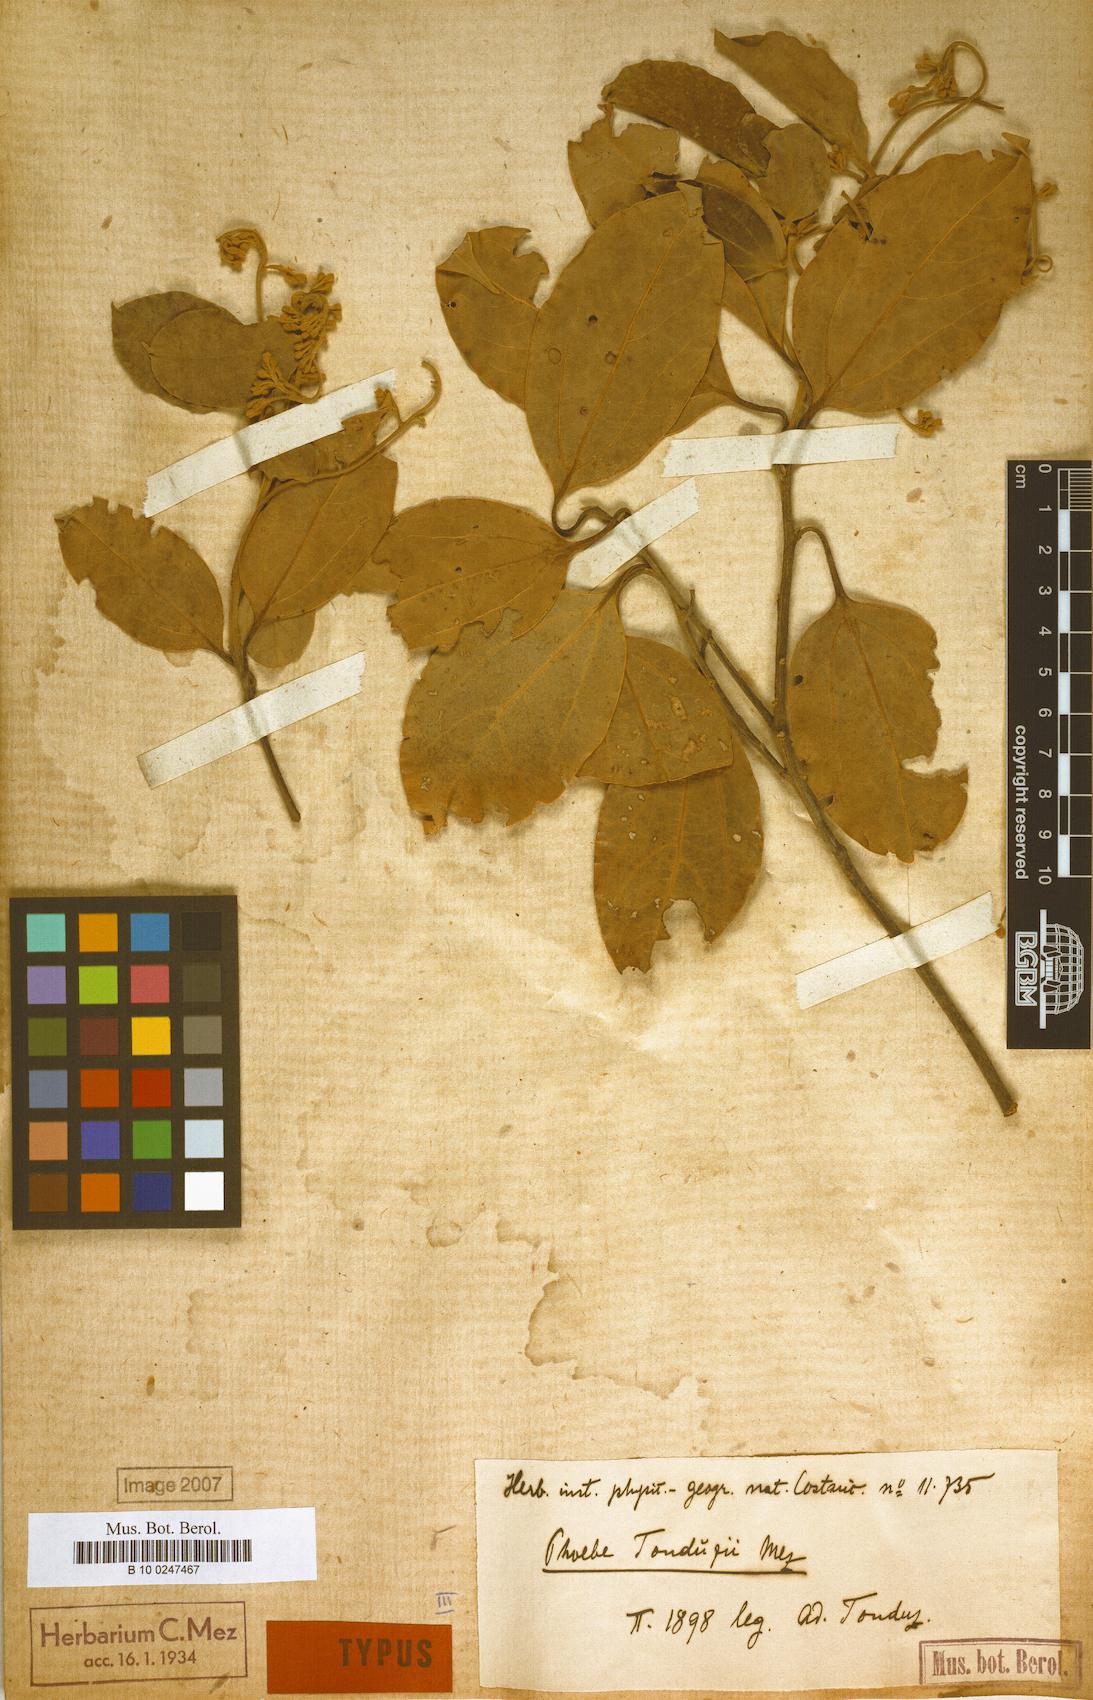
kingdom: Plantae
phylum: Tracheophyta
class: Magnoliopsida
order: Laurales
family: Lauraceae
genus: Aiouea
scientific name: Aiouea tonduzii
